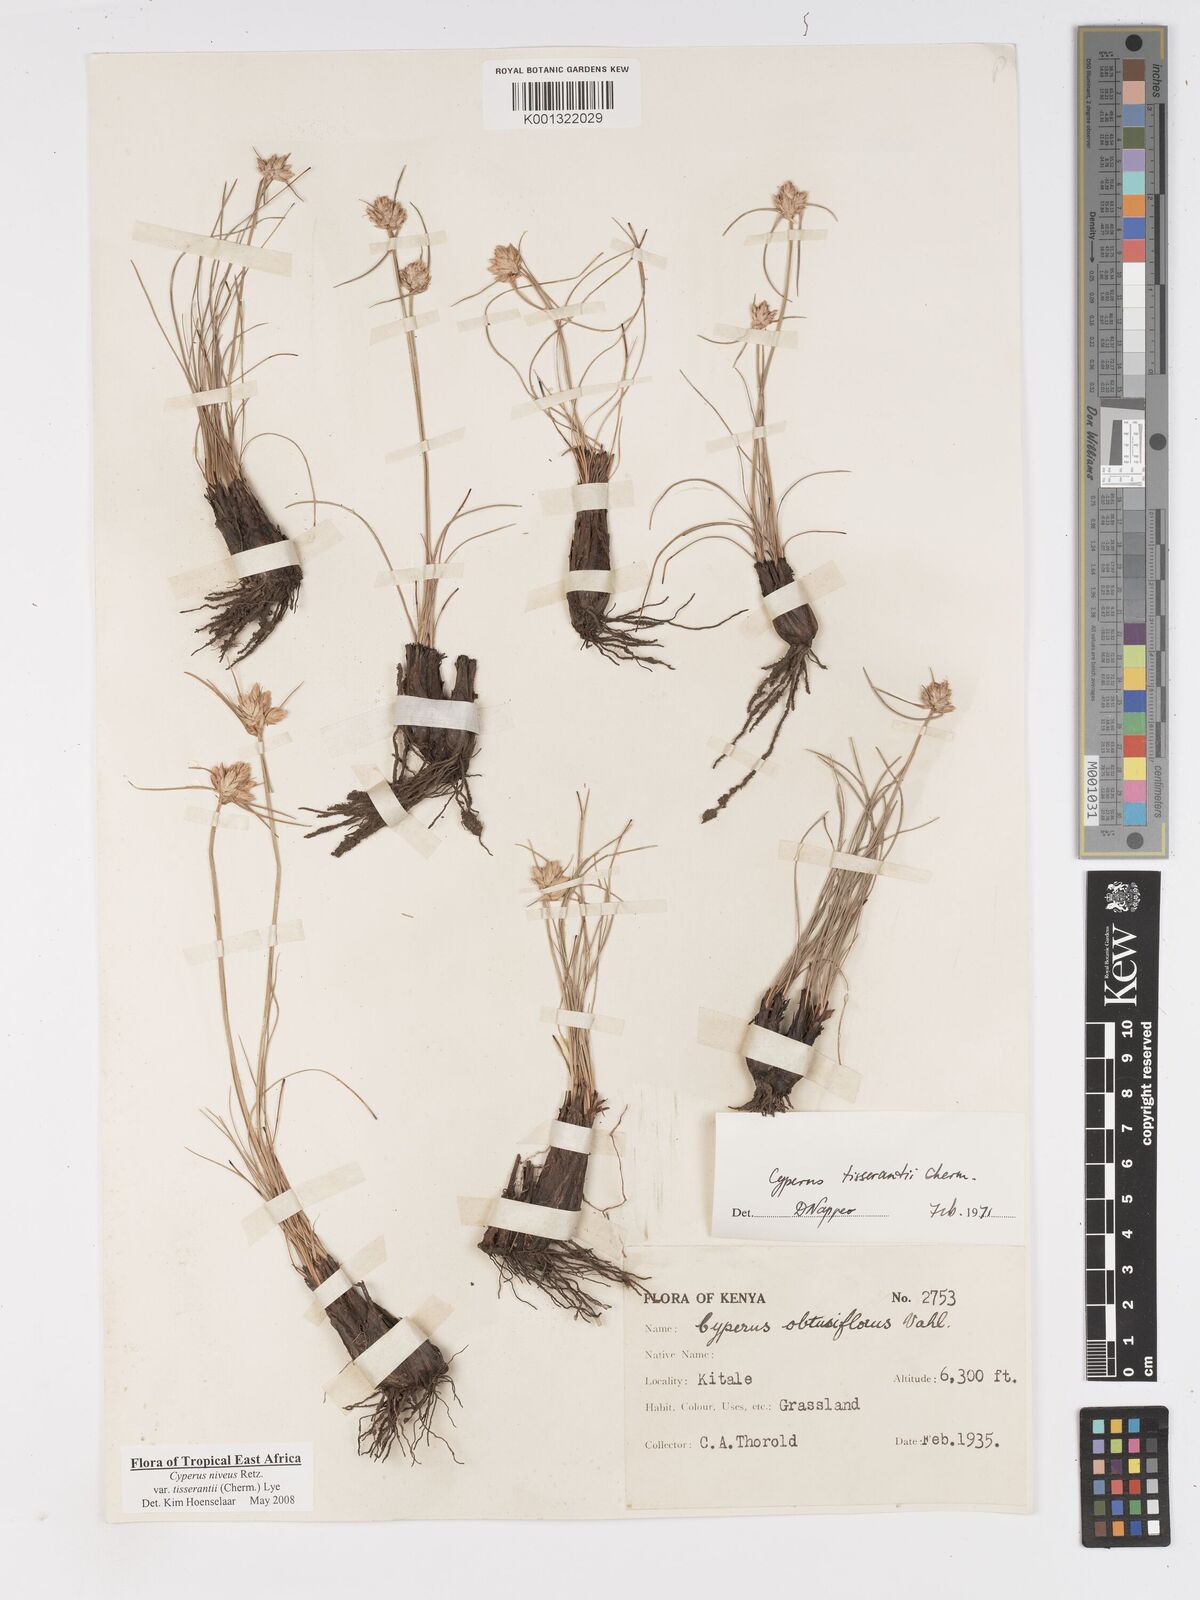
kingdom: Plantae
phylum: Tracheophyta
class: Liliopsida
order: Poales
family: Cyperaceae
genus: Cyperus
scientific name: Cyperus niveus
